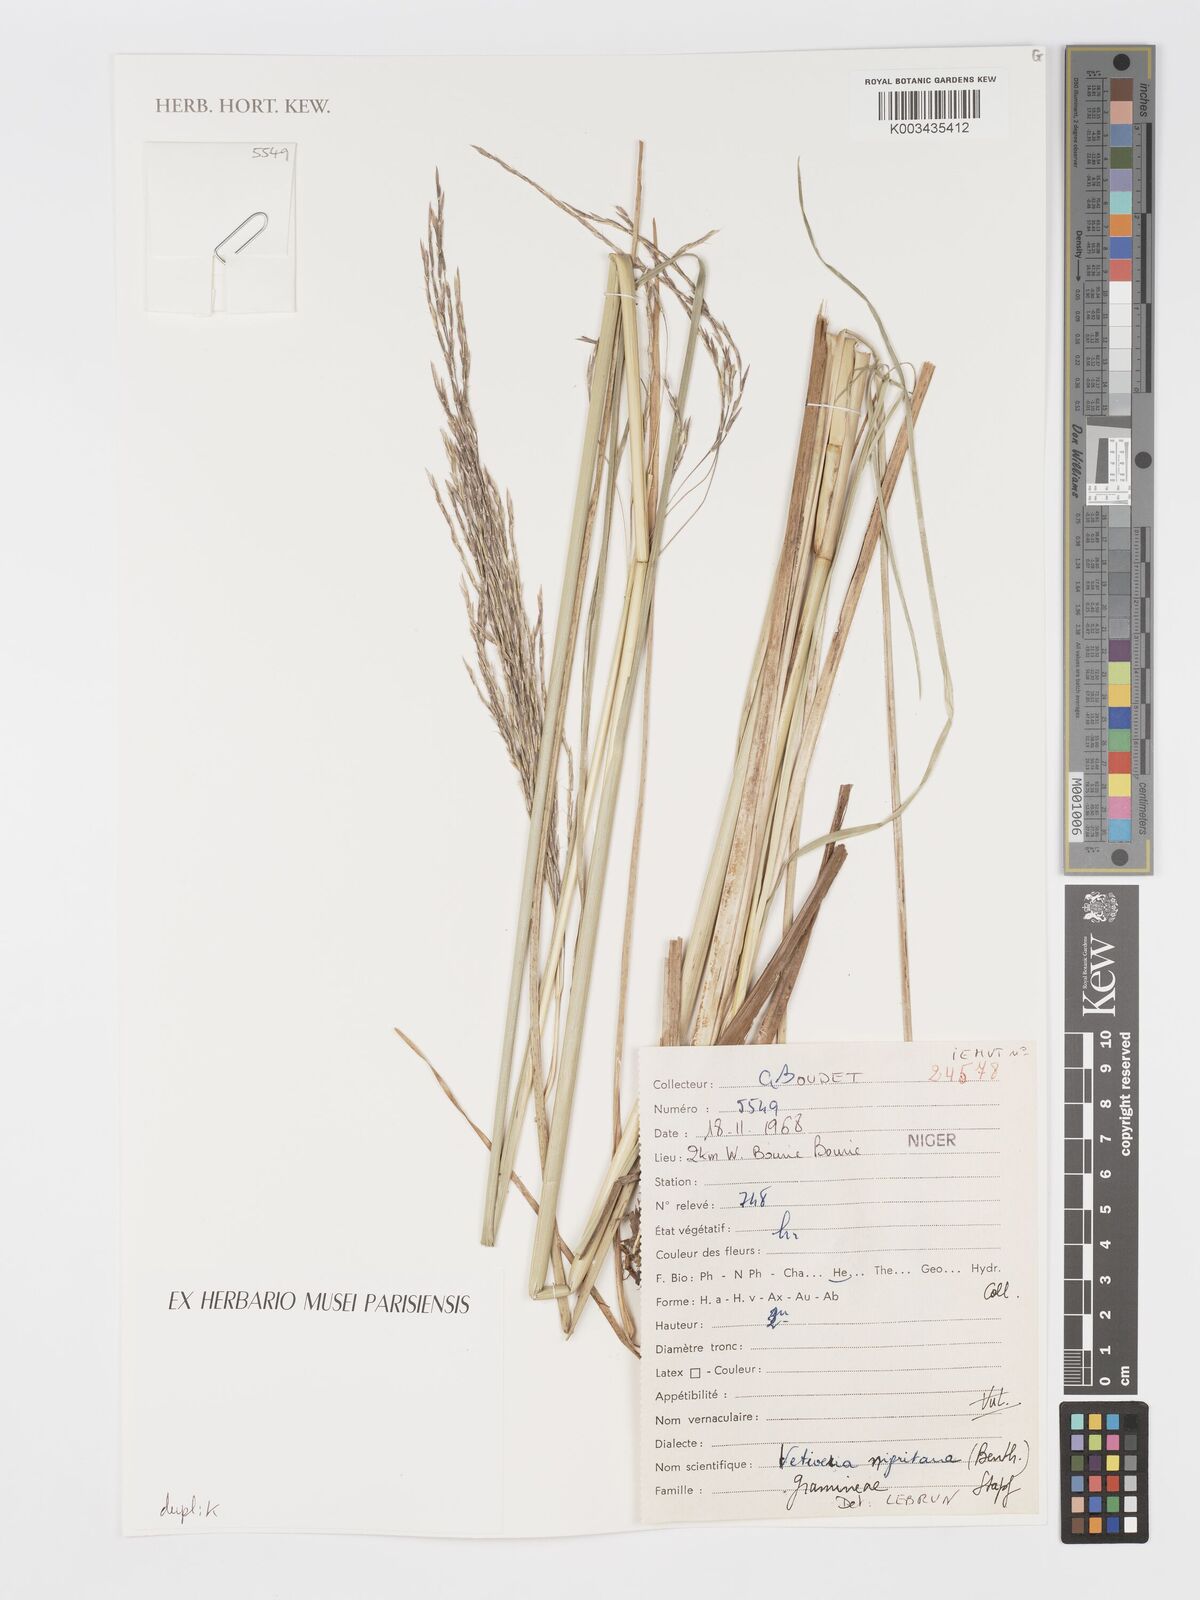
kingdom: Plantae
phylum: Tracheophyta
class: Liliopsida
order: Poales
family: Poaceae
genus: Chrysopogon
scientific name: Chrysopogon nigritanus
